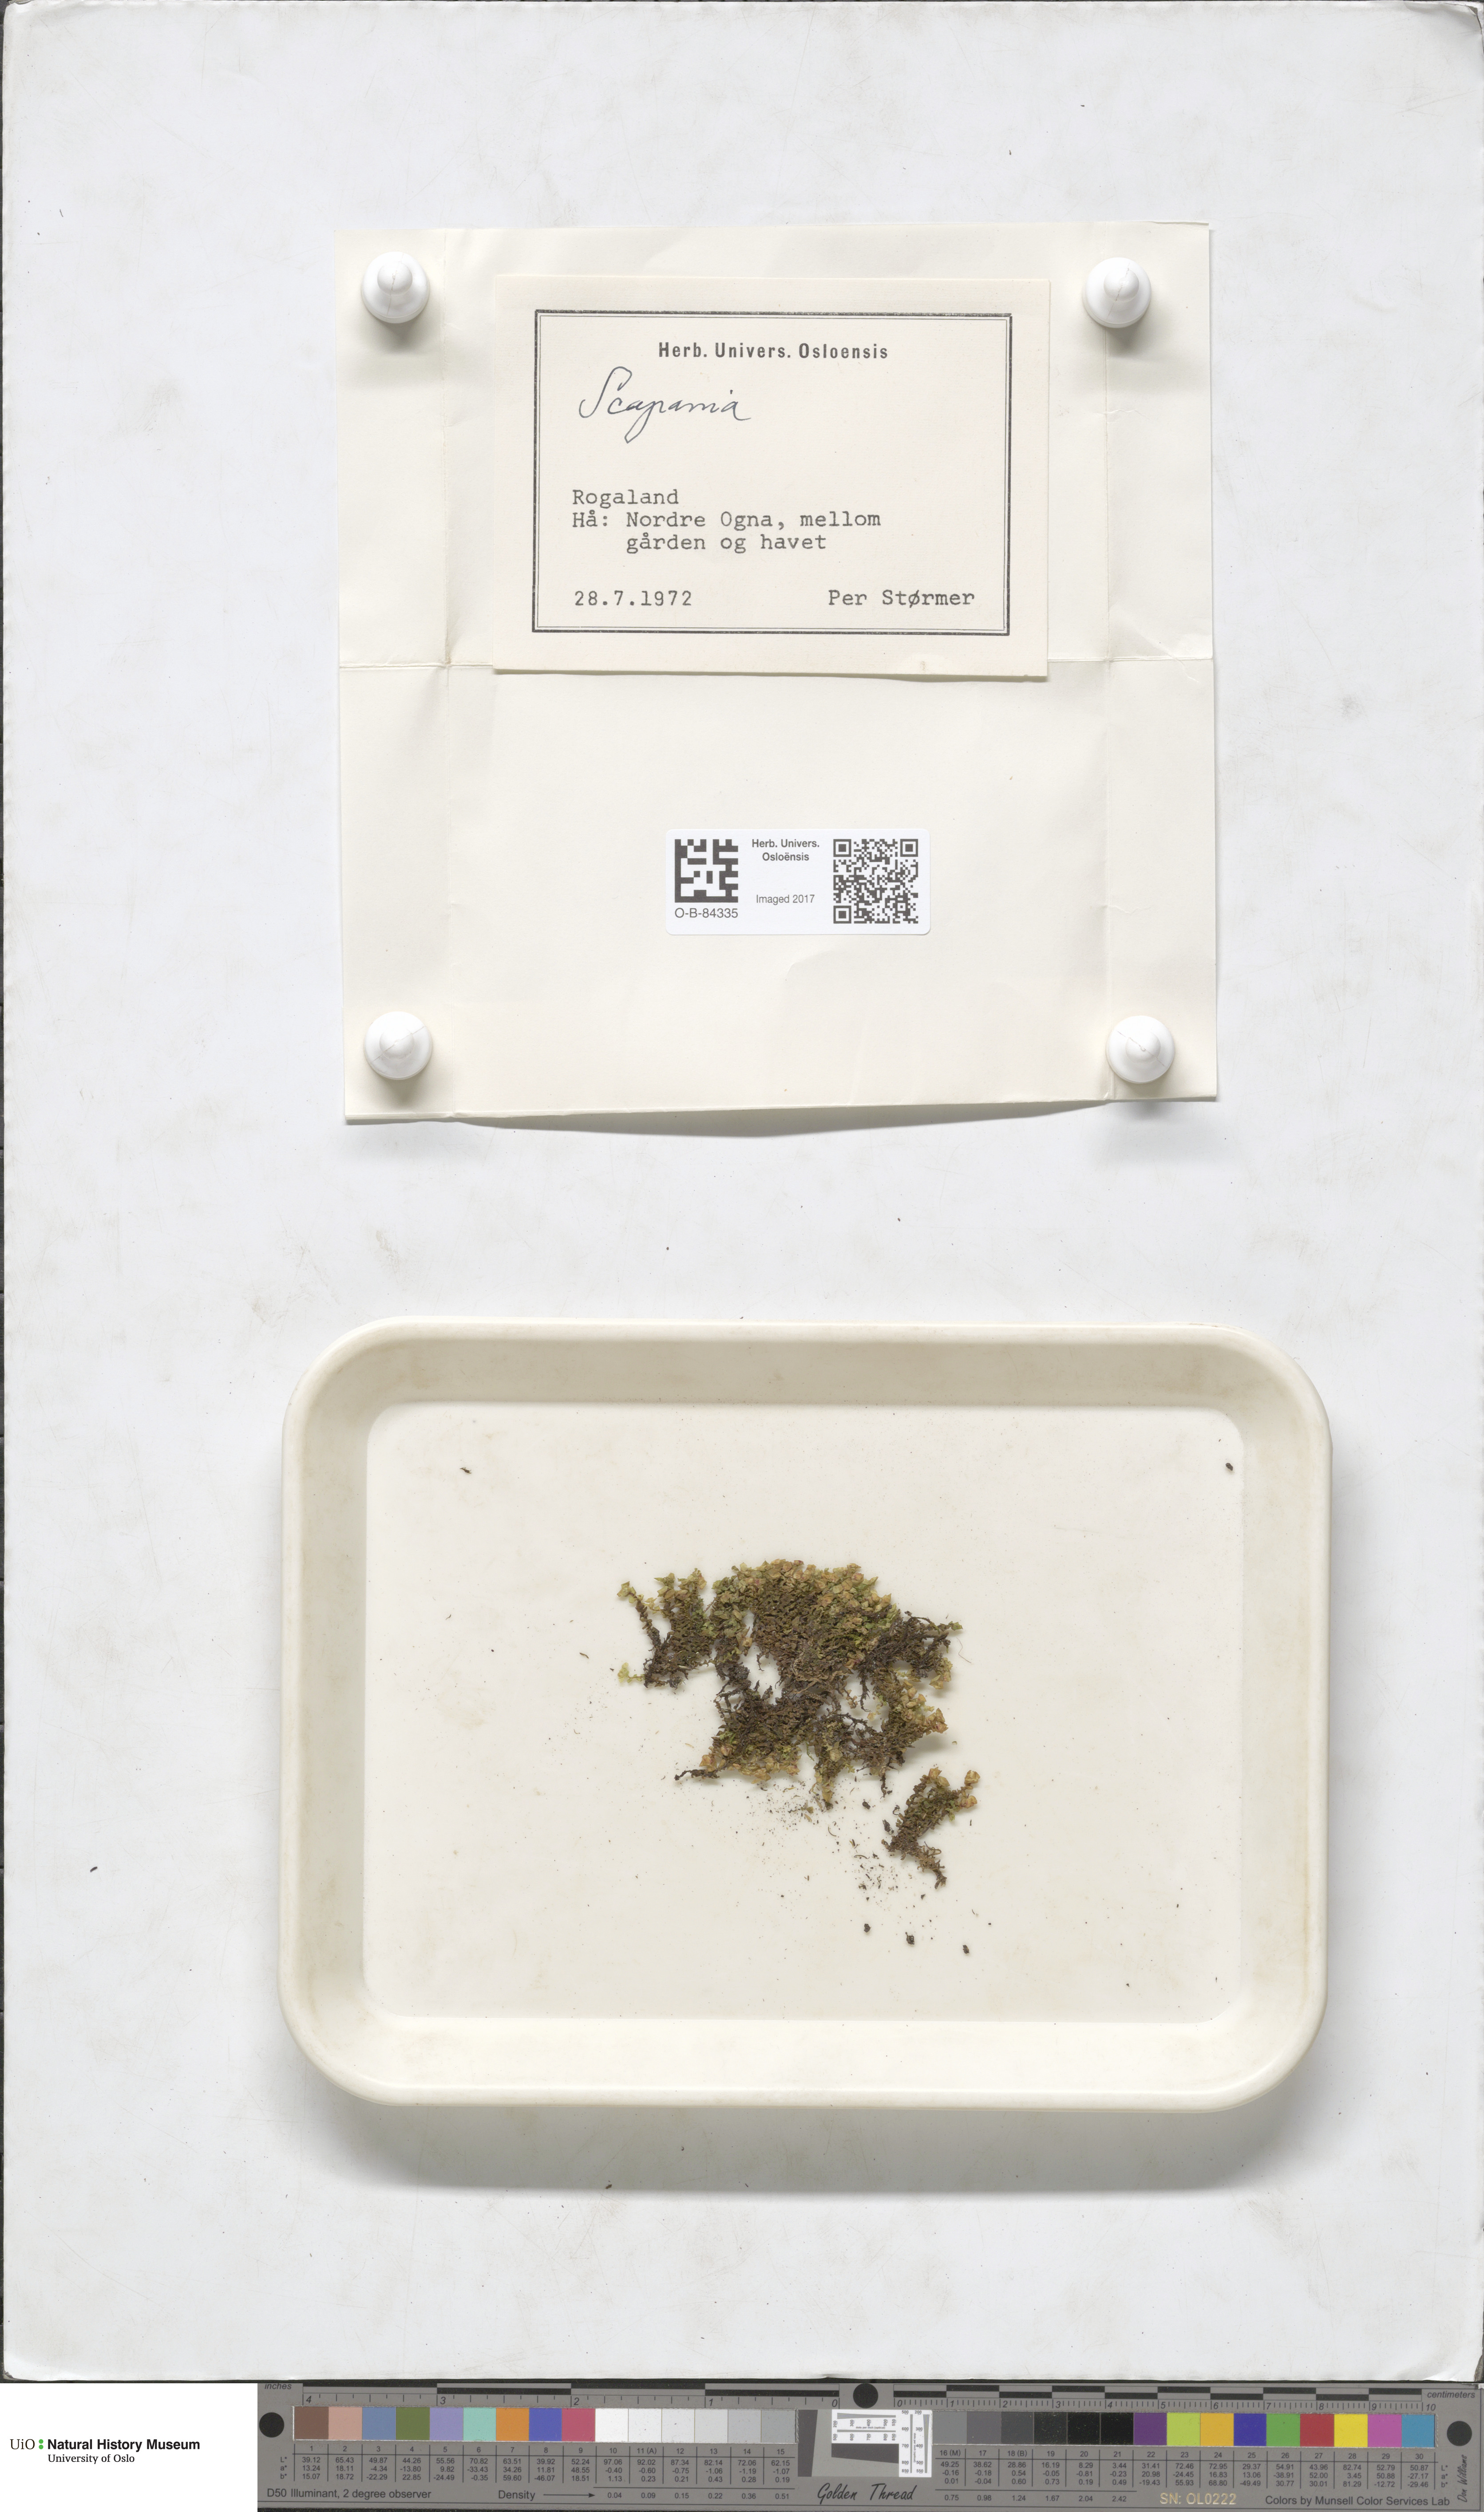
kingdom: Plantae
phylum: Marchantiophyta
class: Jungermanniopsida
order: Jungermanniales
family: Scapaniaceae
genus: Scapania
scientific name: Scapania
